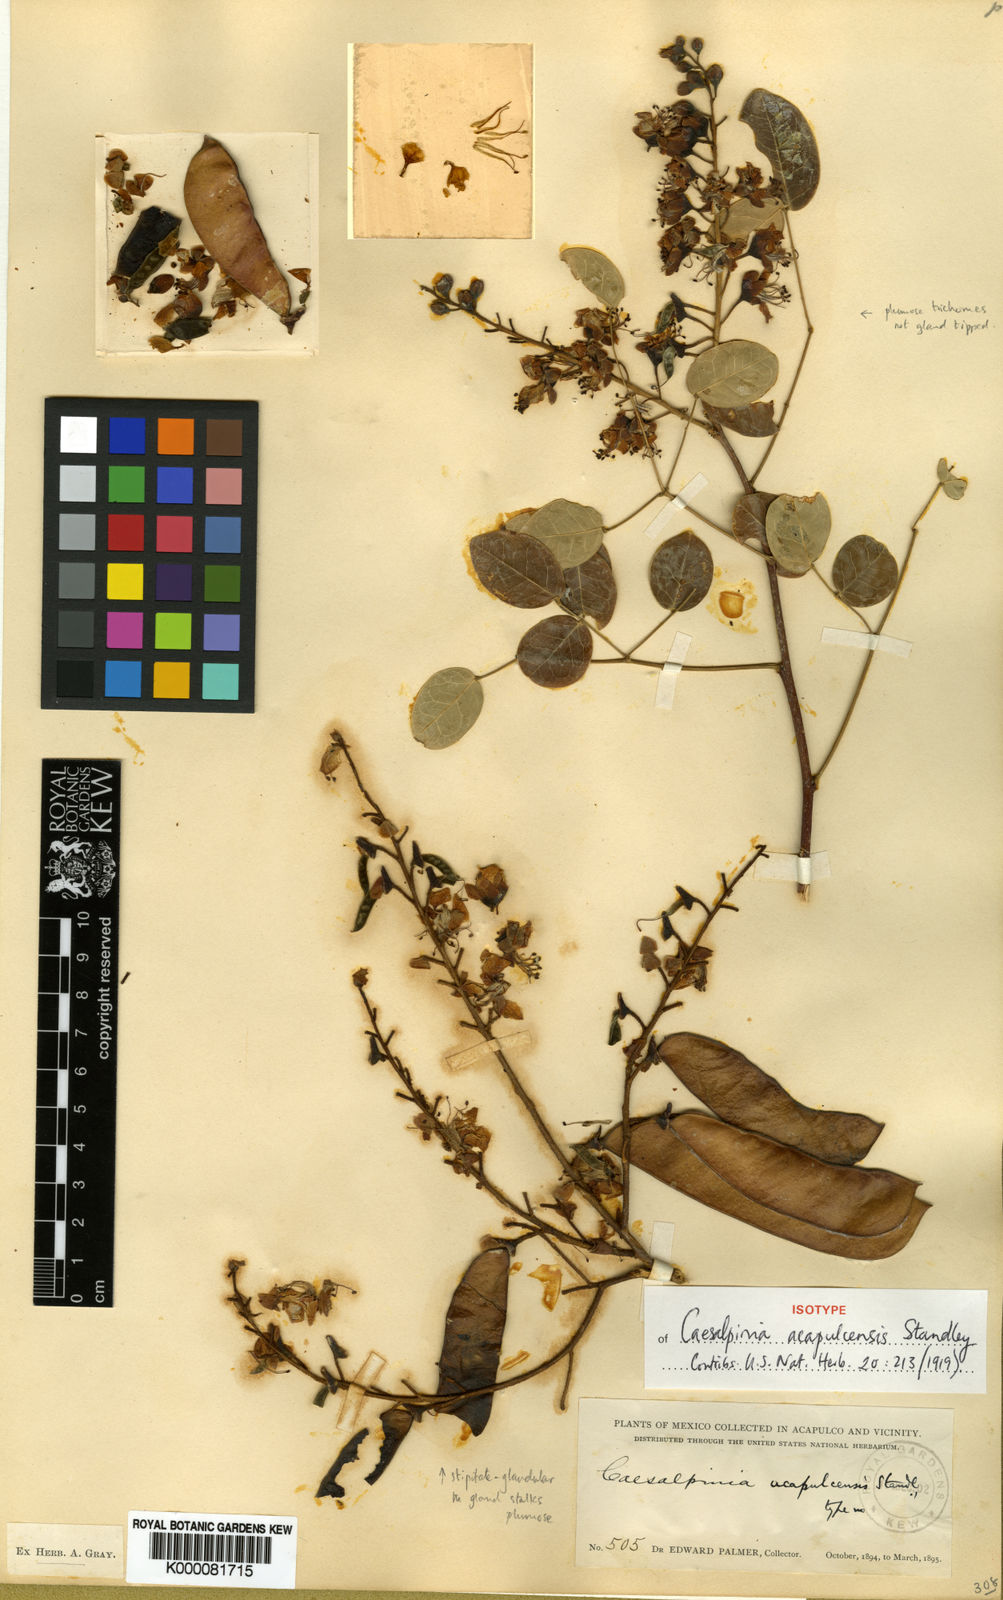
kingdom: Plantae
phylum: Tracheophyta
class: Magnoliopsida
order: Fabales
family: Fabaceae
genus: Erythrostemon
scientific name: Erythrostemon acapulcensis
